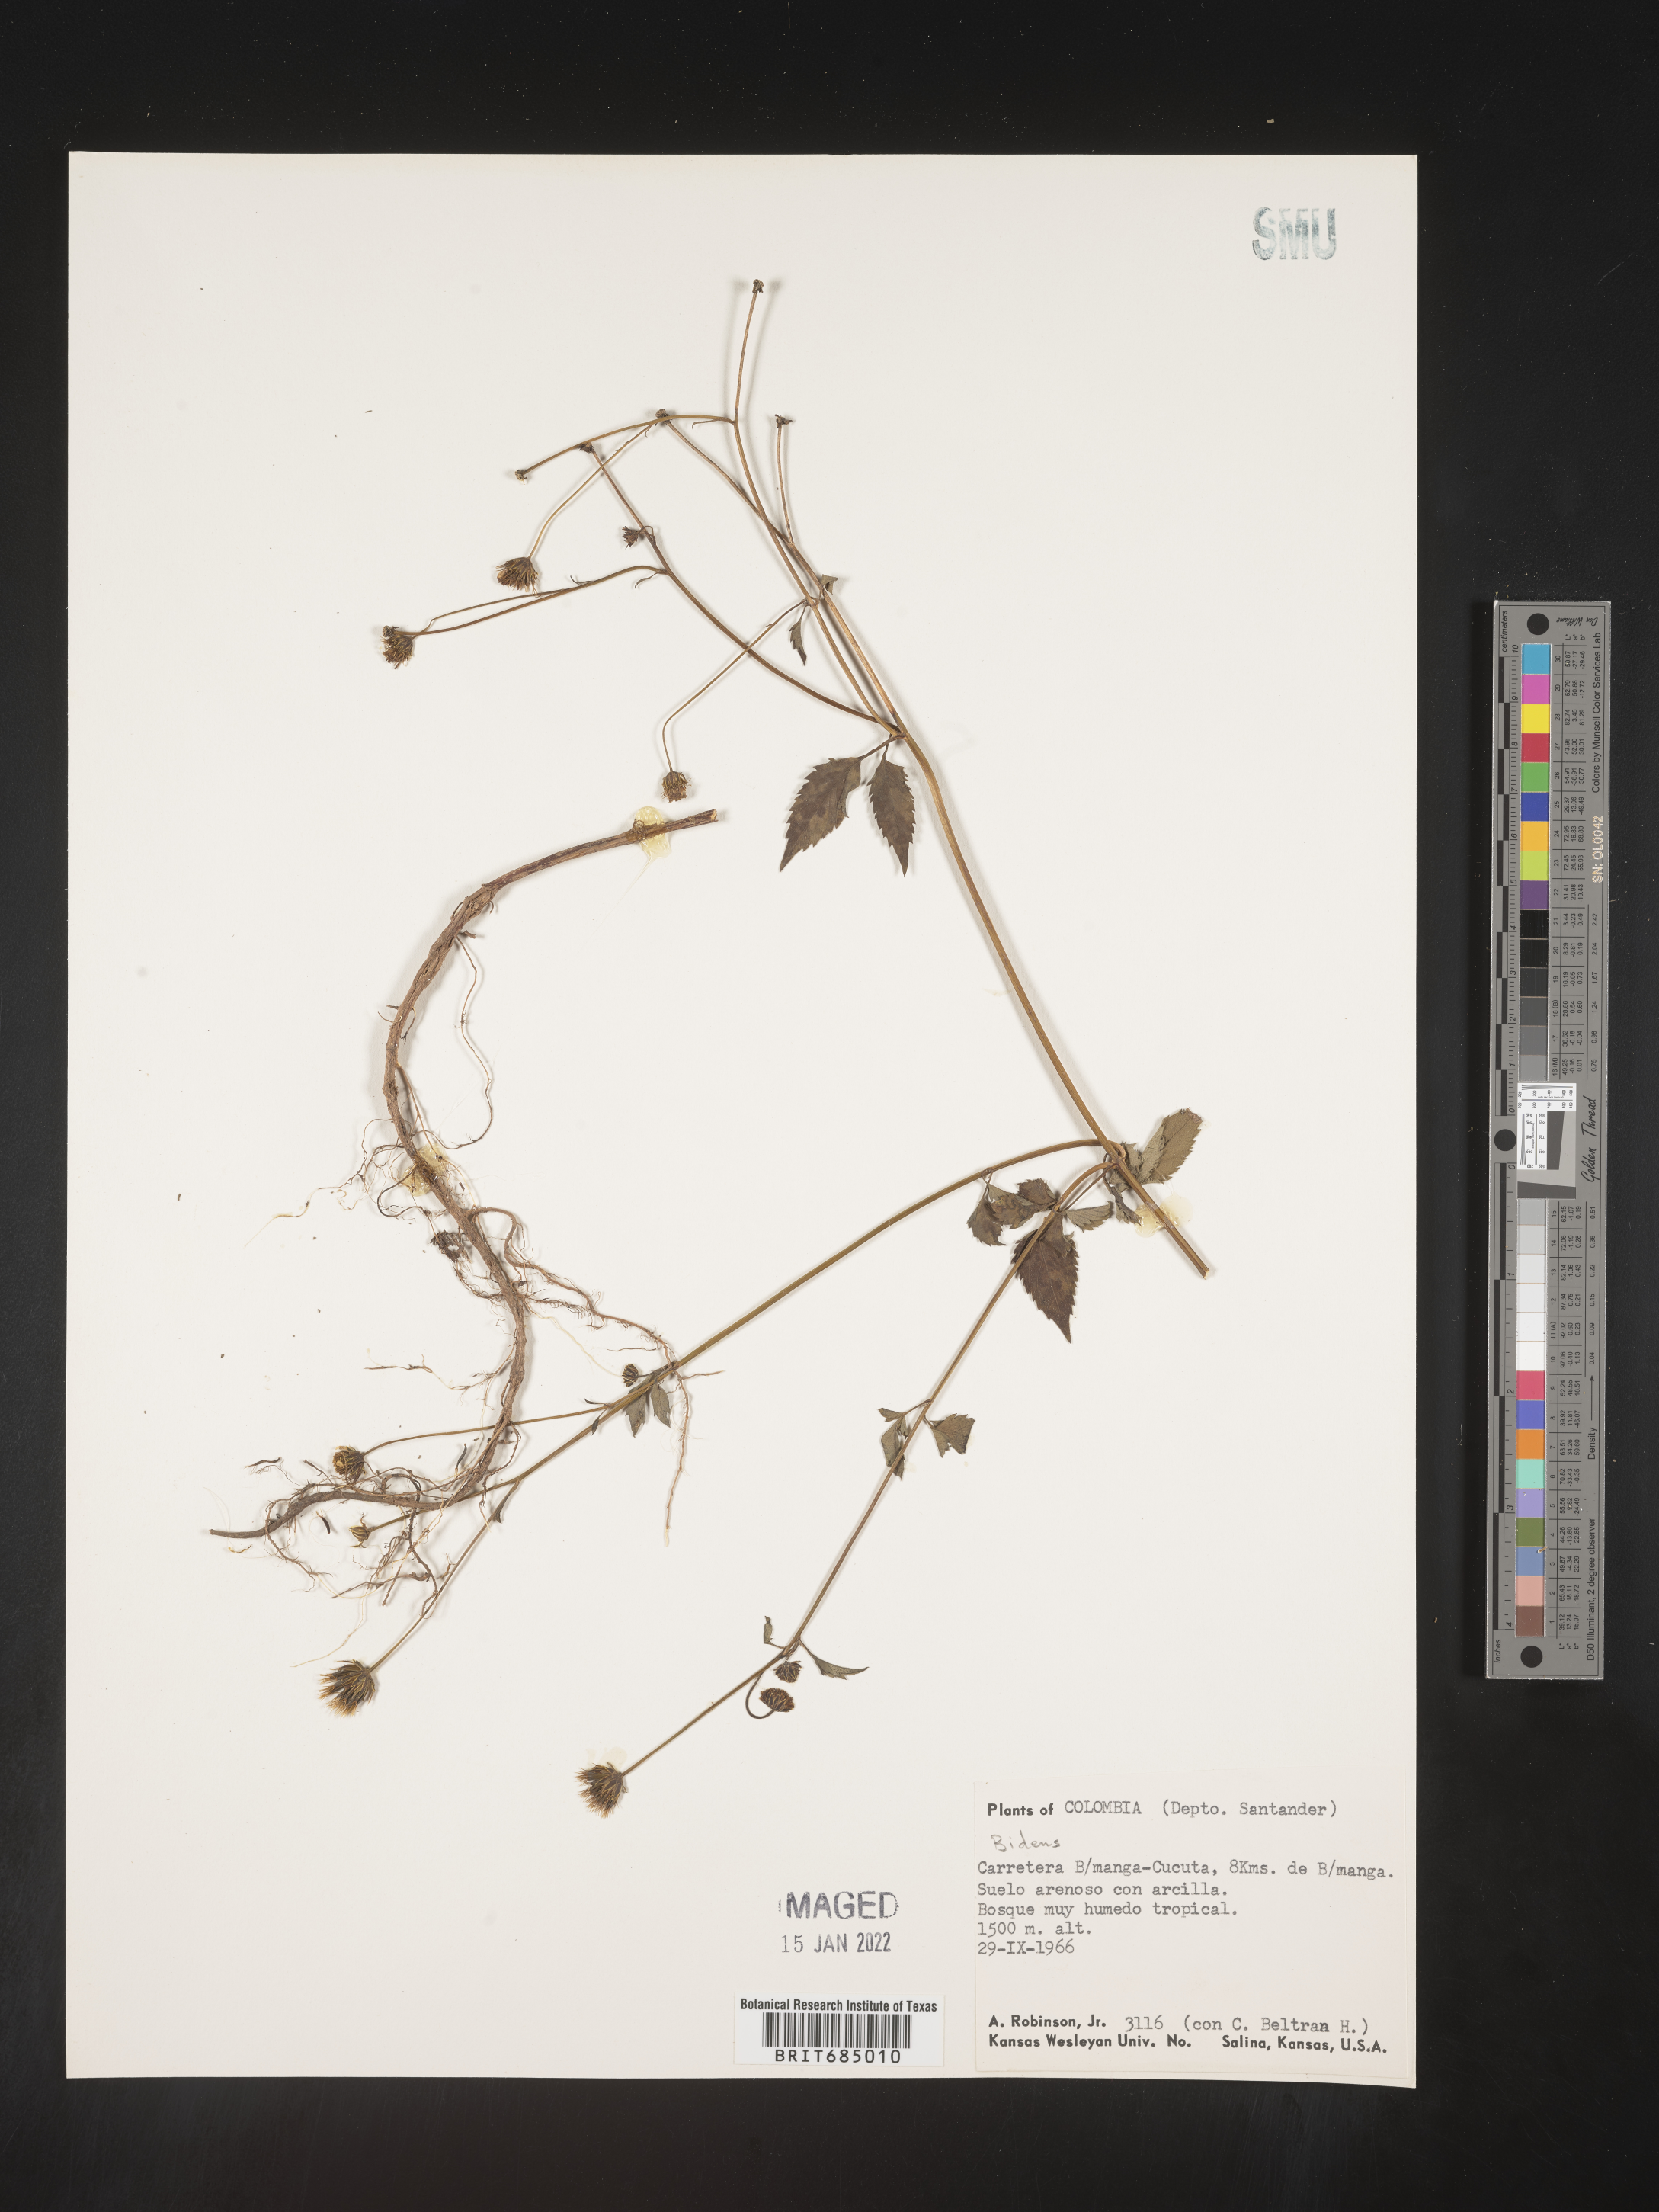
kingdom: Plantae
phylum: Tracheophyta
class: Magnoliopsida
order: Asterales
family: Asteraceae
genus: Bidens
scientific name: Bidens rubifolia
